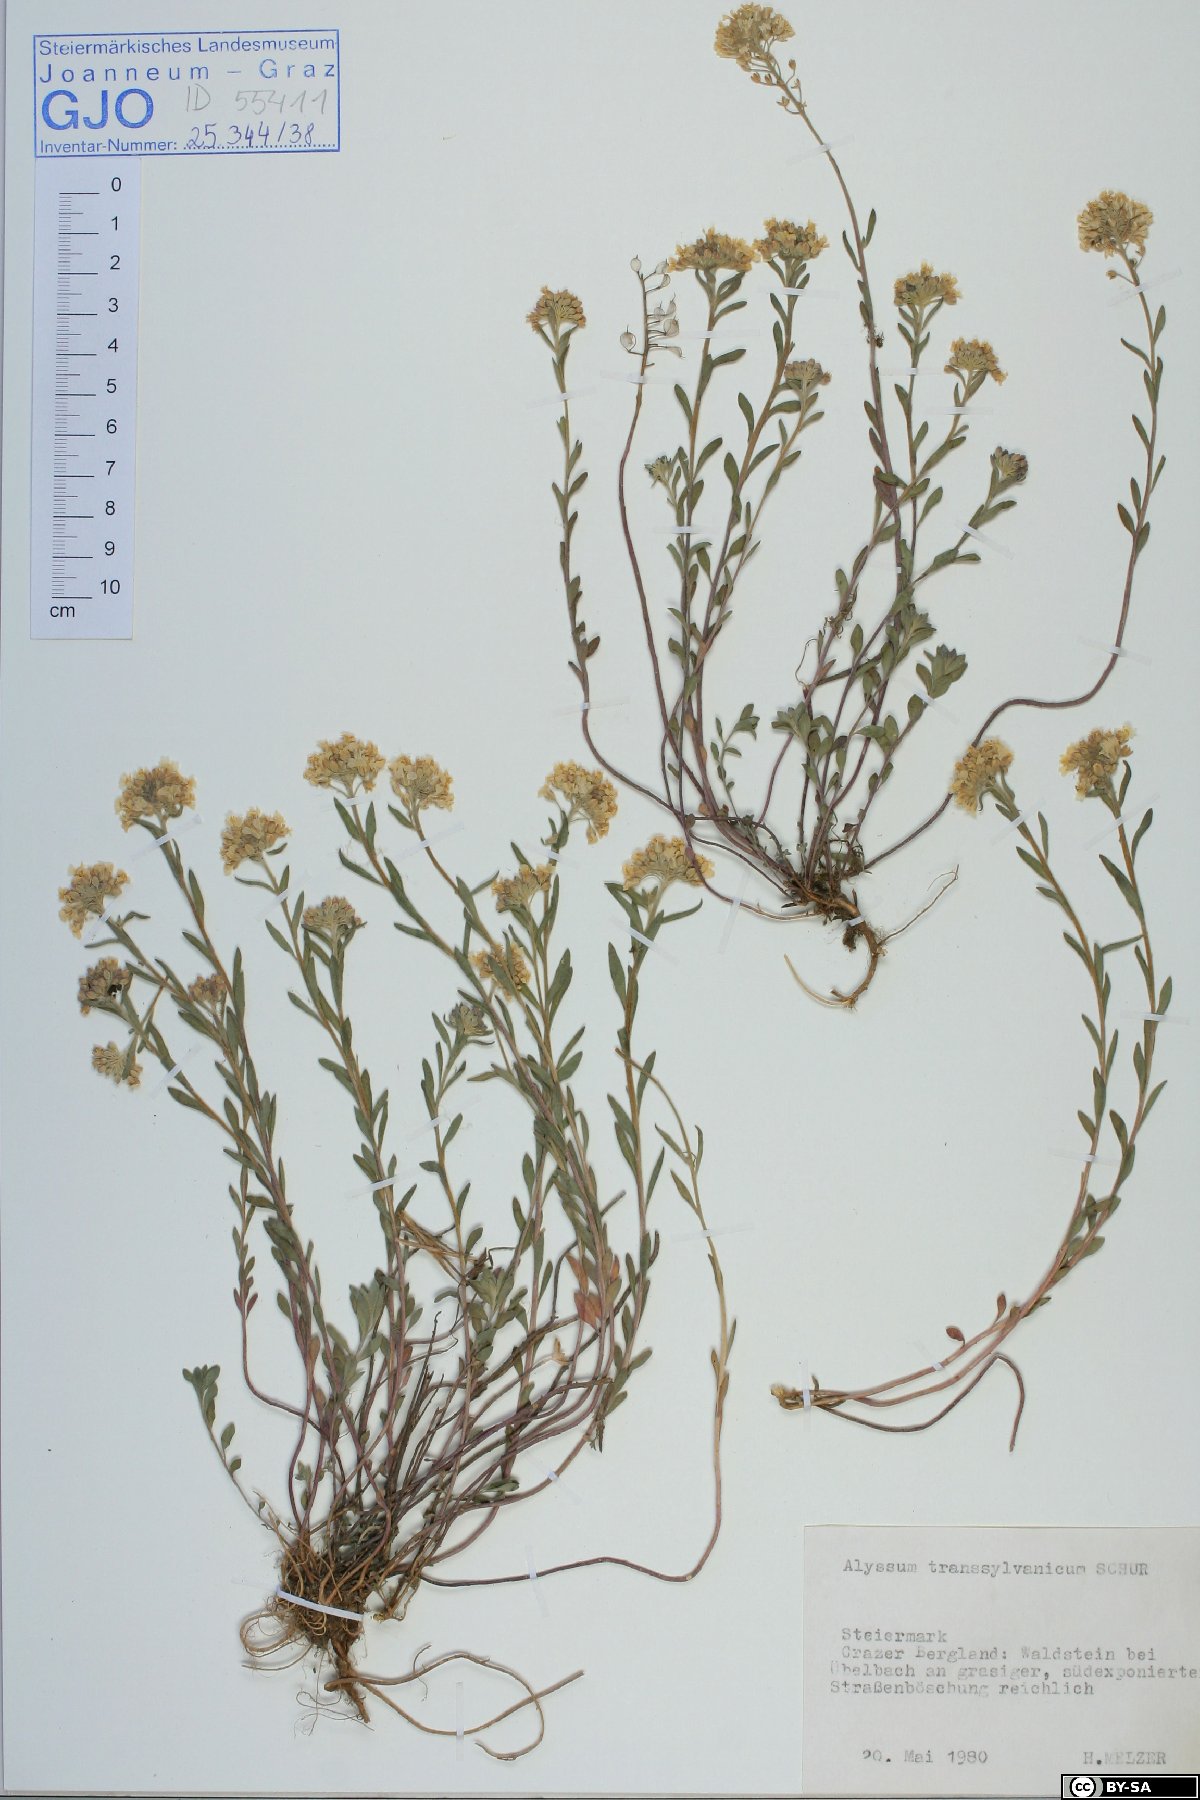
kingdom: Plantae
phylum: Tracheophyta
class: Magnoliopsida
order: Brassicales
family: Brassicaceae
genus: Alyssum
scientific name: Alyssum repens
